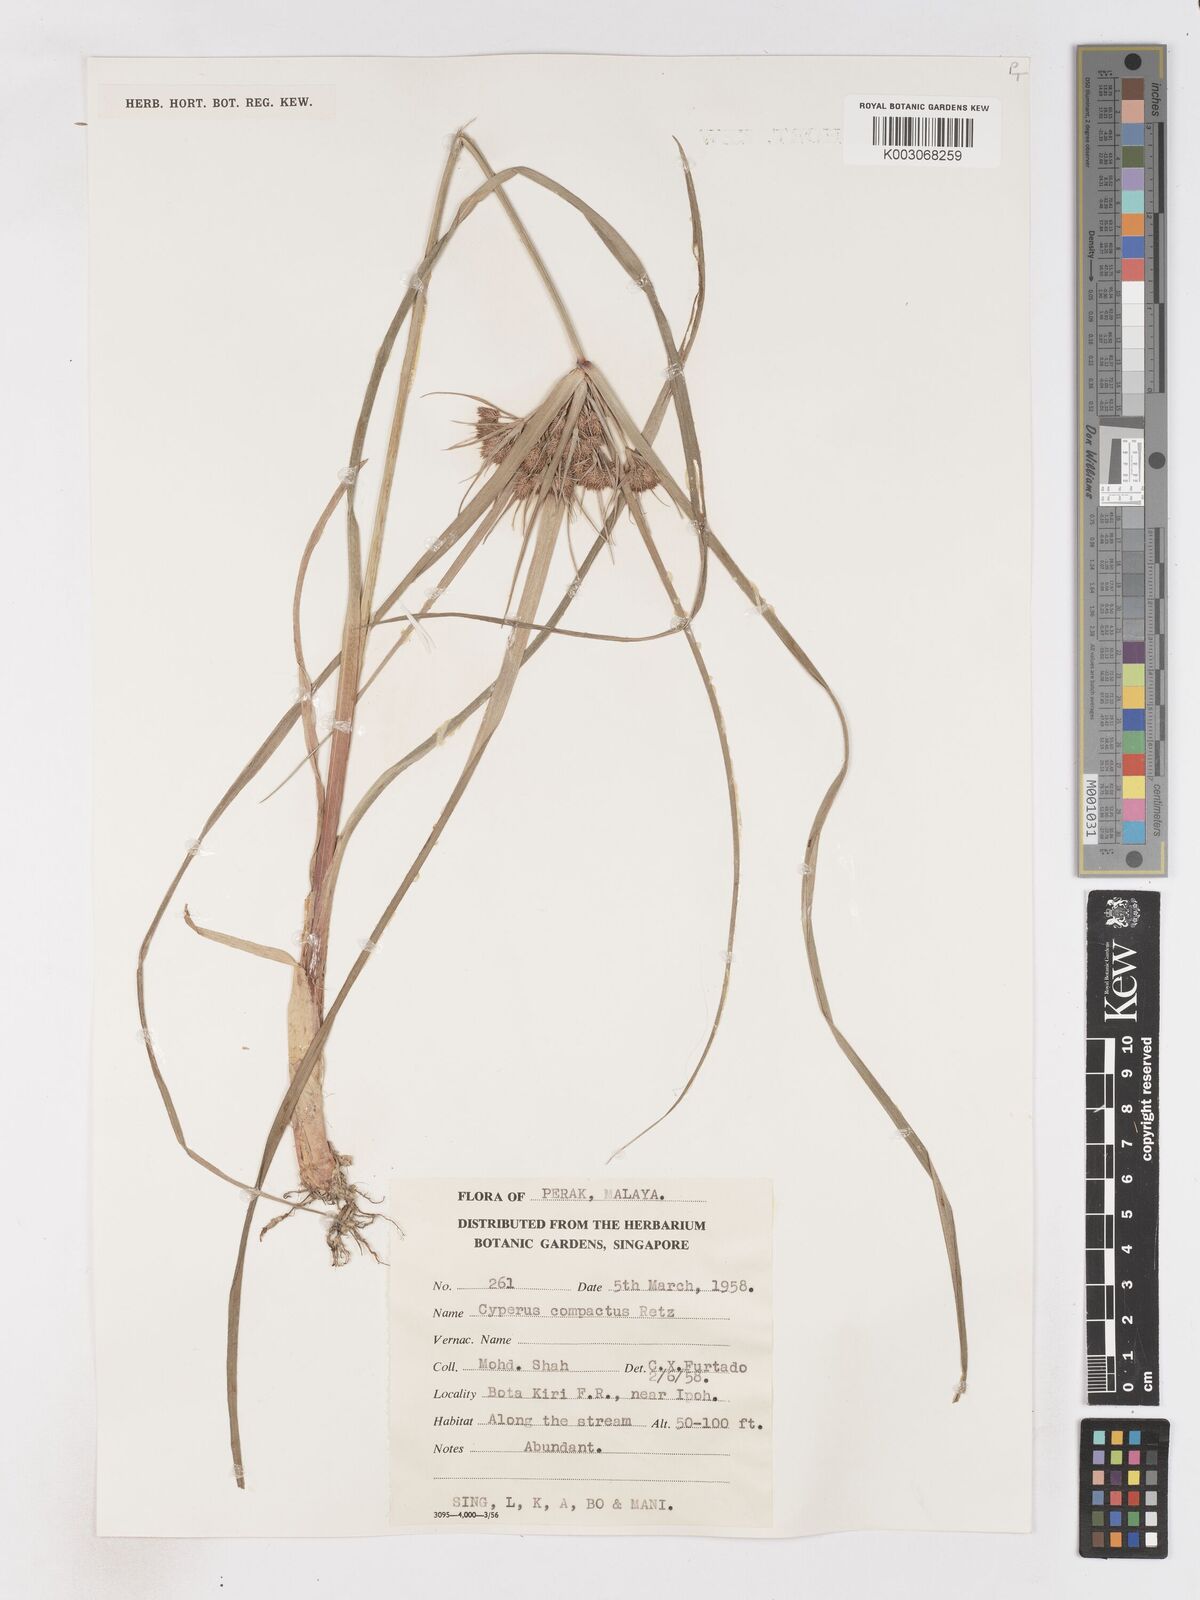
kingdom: Plantae
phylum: Tracheophyta
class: Liliopsida
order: Poales
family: Cyperaceae
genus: Cyperus
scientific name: Cyperus compactus
